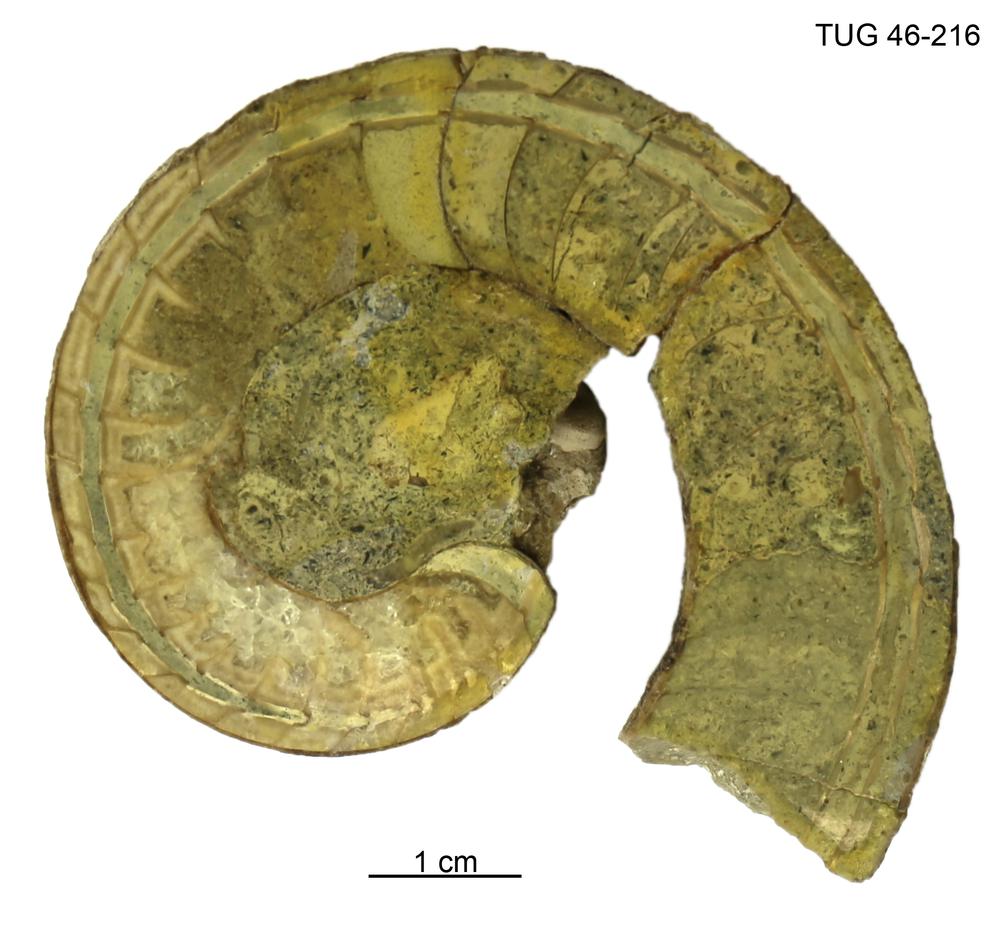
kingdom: Animalia
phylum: Mollusca
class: Cephalopoda
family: Estonioceratidae
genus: Estonioceras
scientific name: Estonioceras
